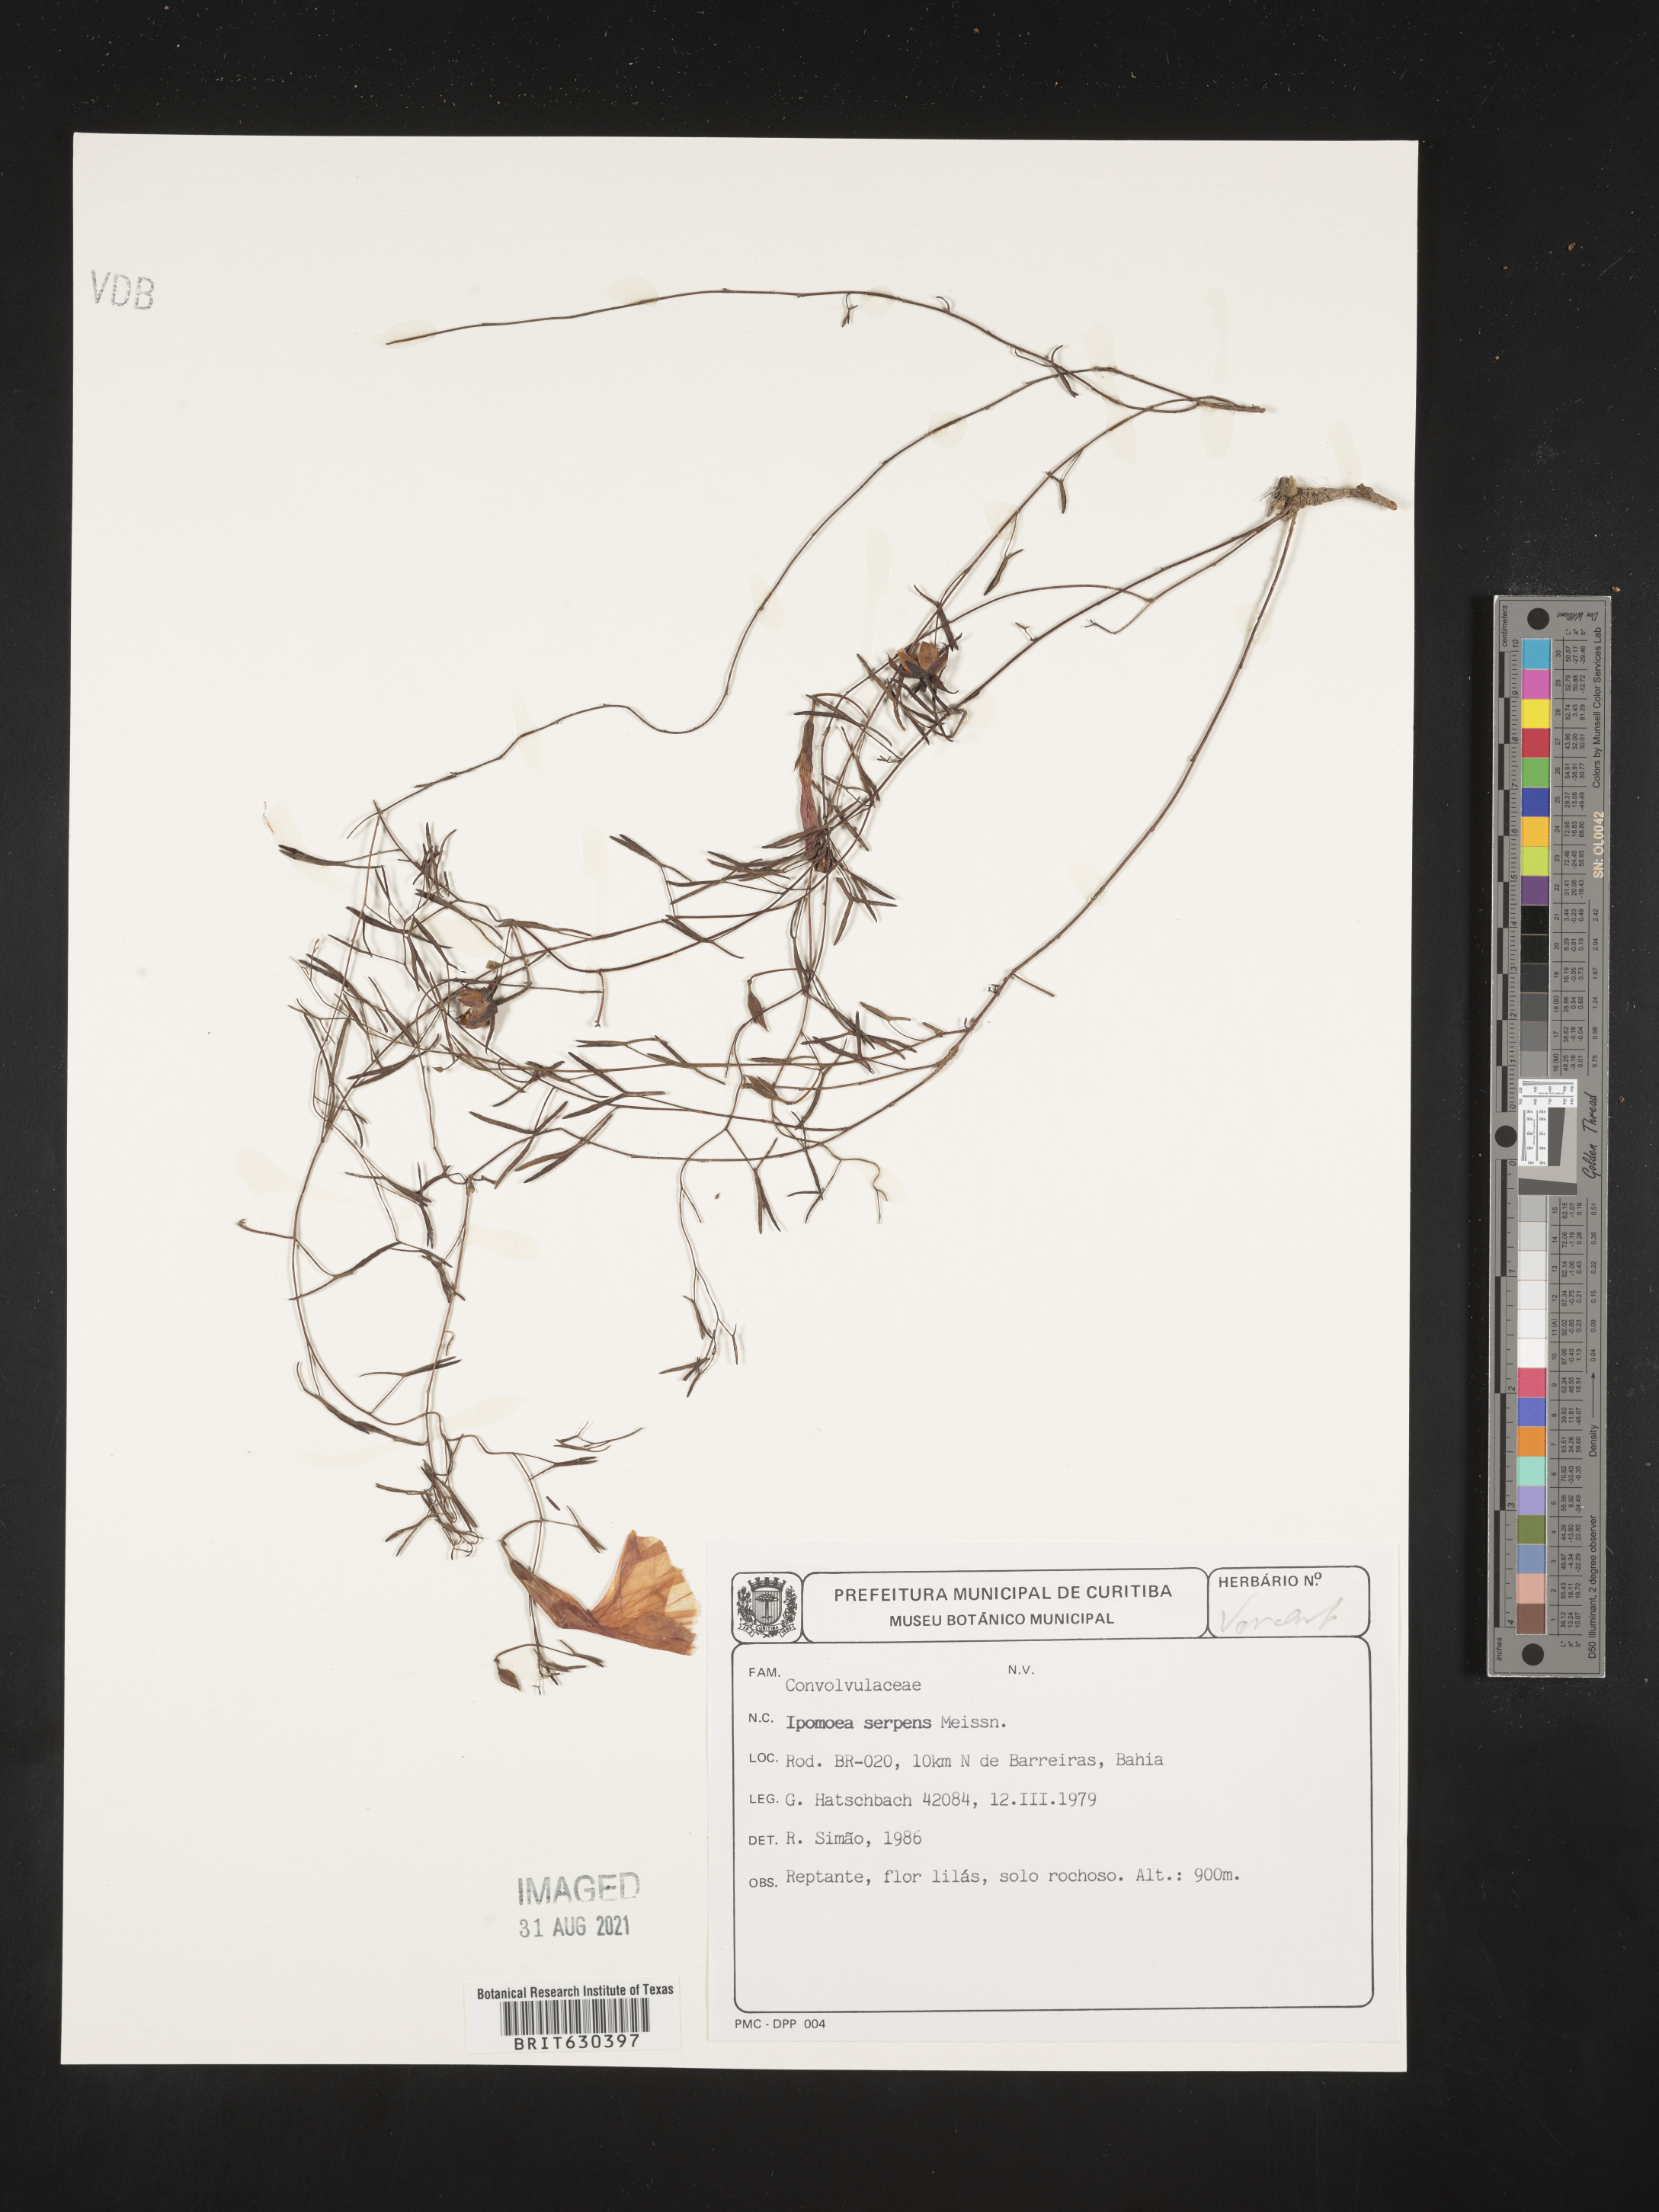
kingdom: Plantae
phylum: Tracheophyta
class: Magnoliopsida
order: Solanales
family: Convolvulaceae
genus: Ipomoea
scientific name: Ipomoea
